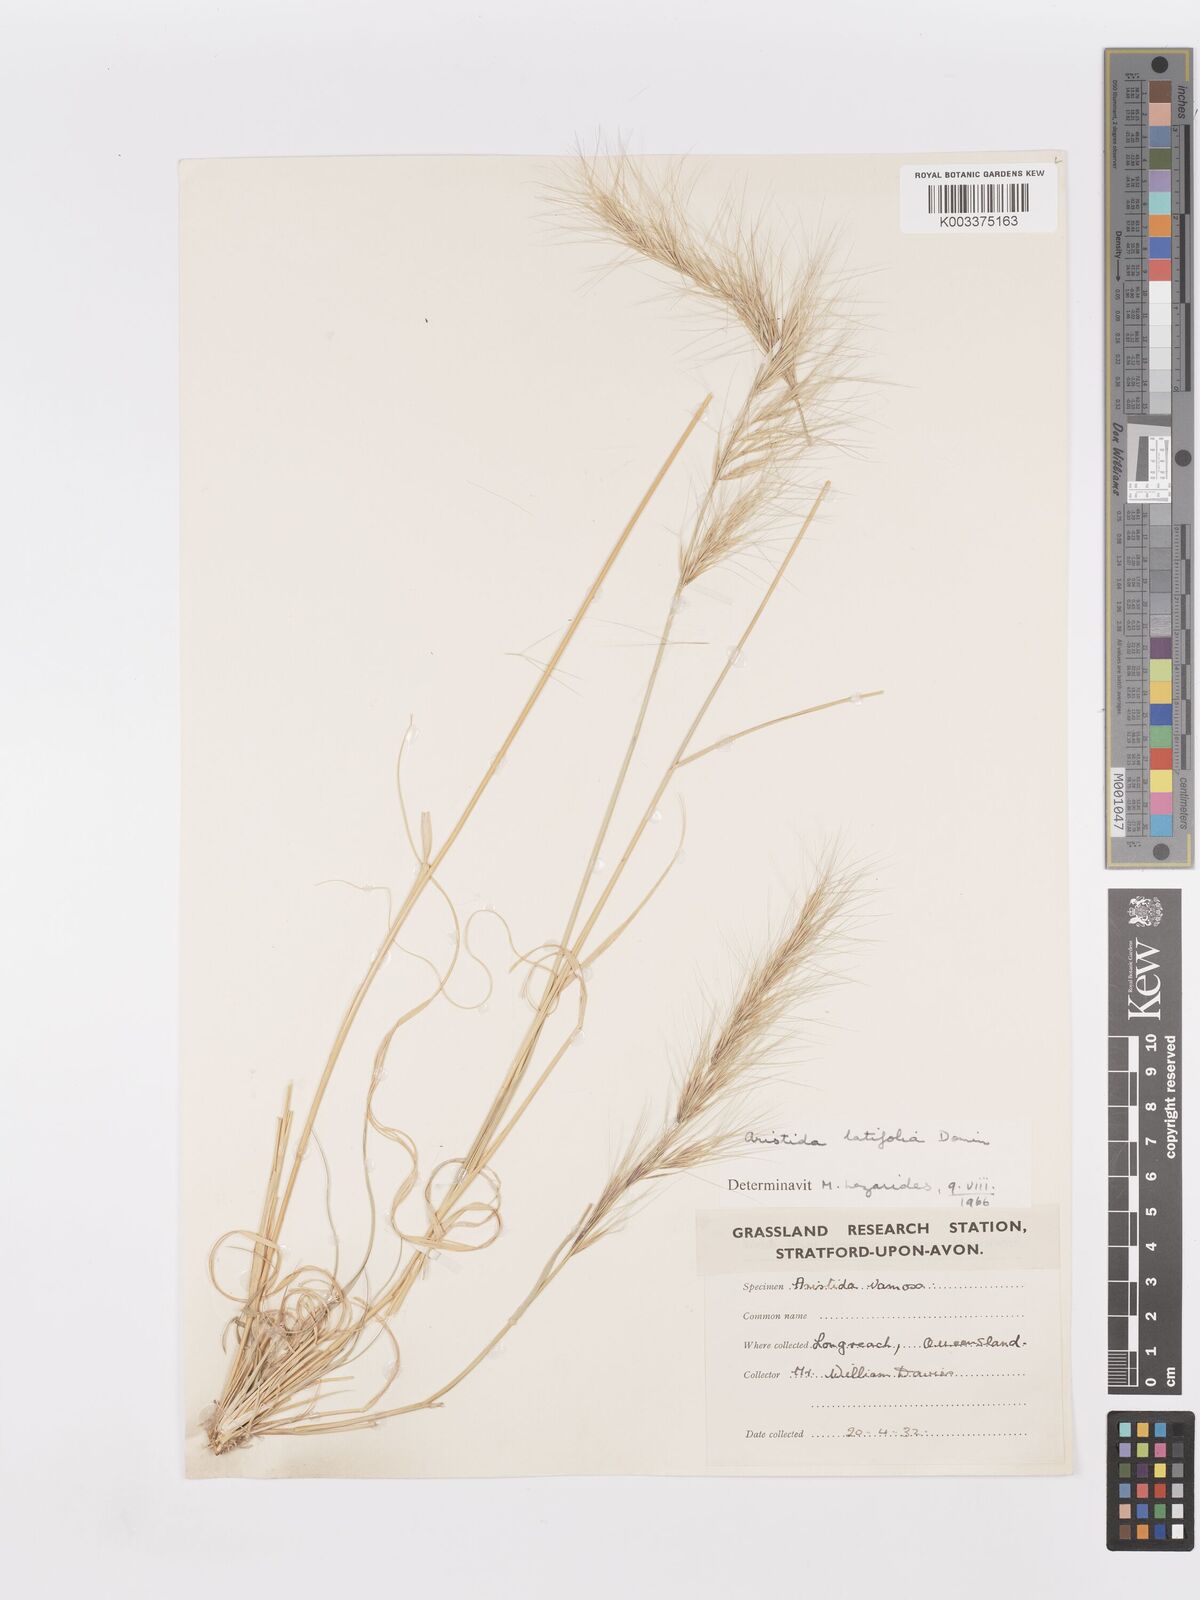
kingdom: Plantae
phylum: Tracheophyta
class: Liliopsida
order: Poales
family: Poaceae
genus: Aristida
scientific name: Aristida latifolia
